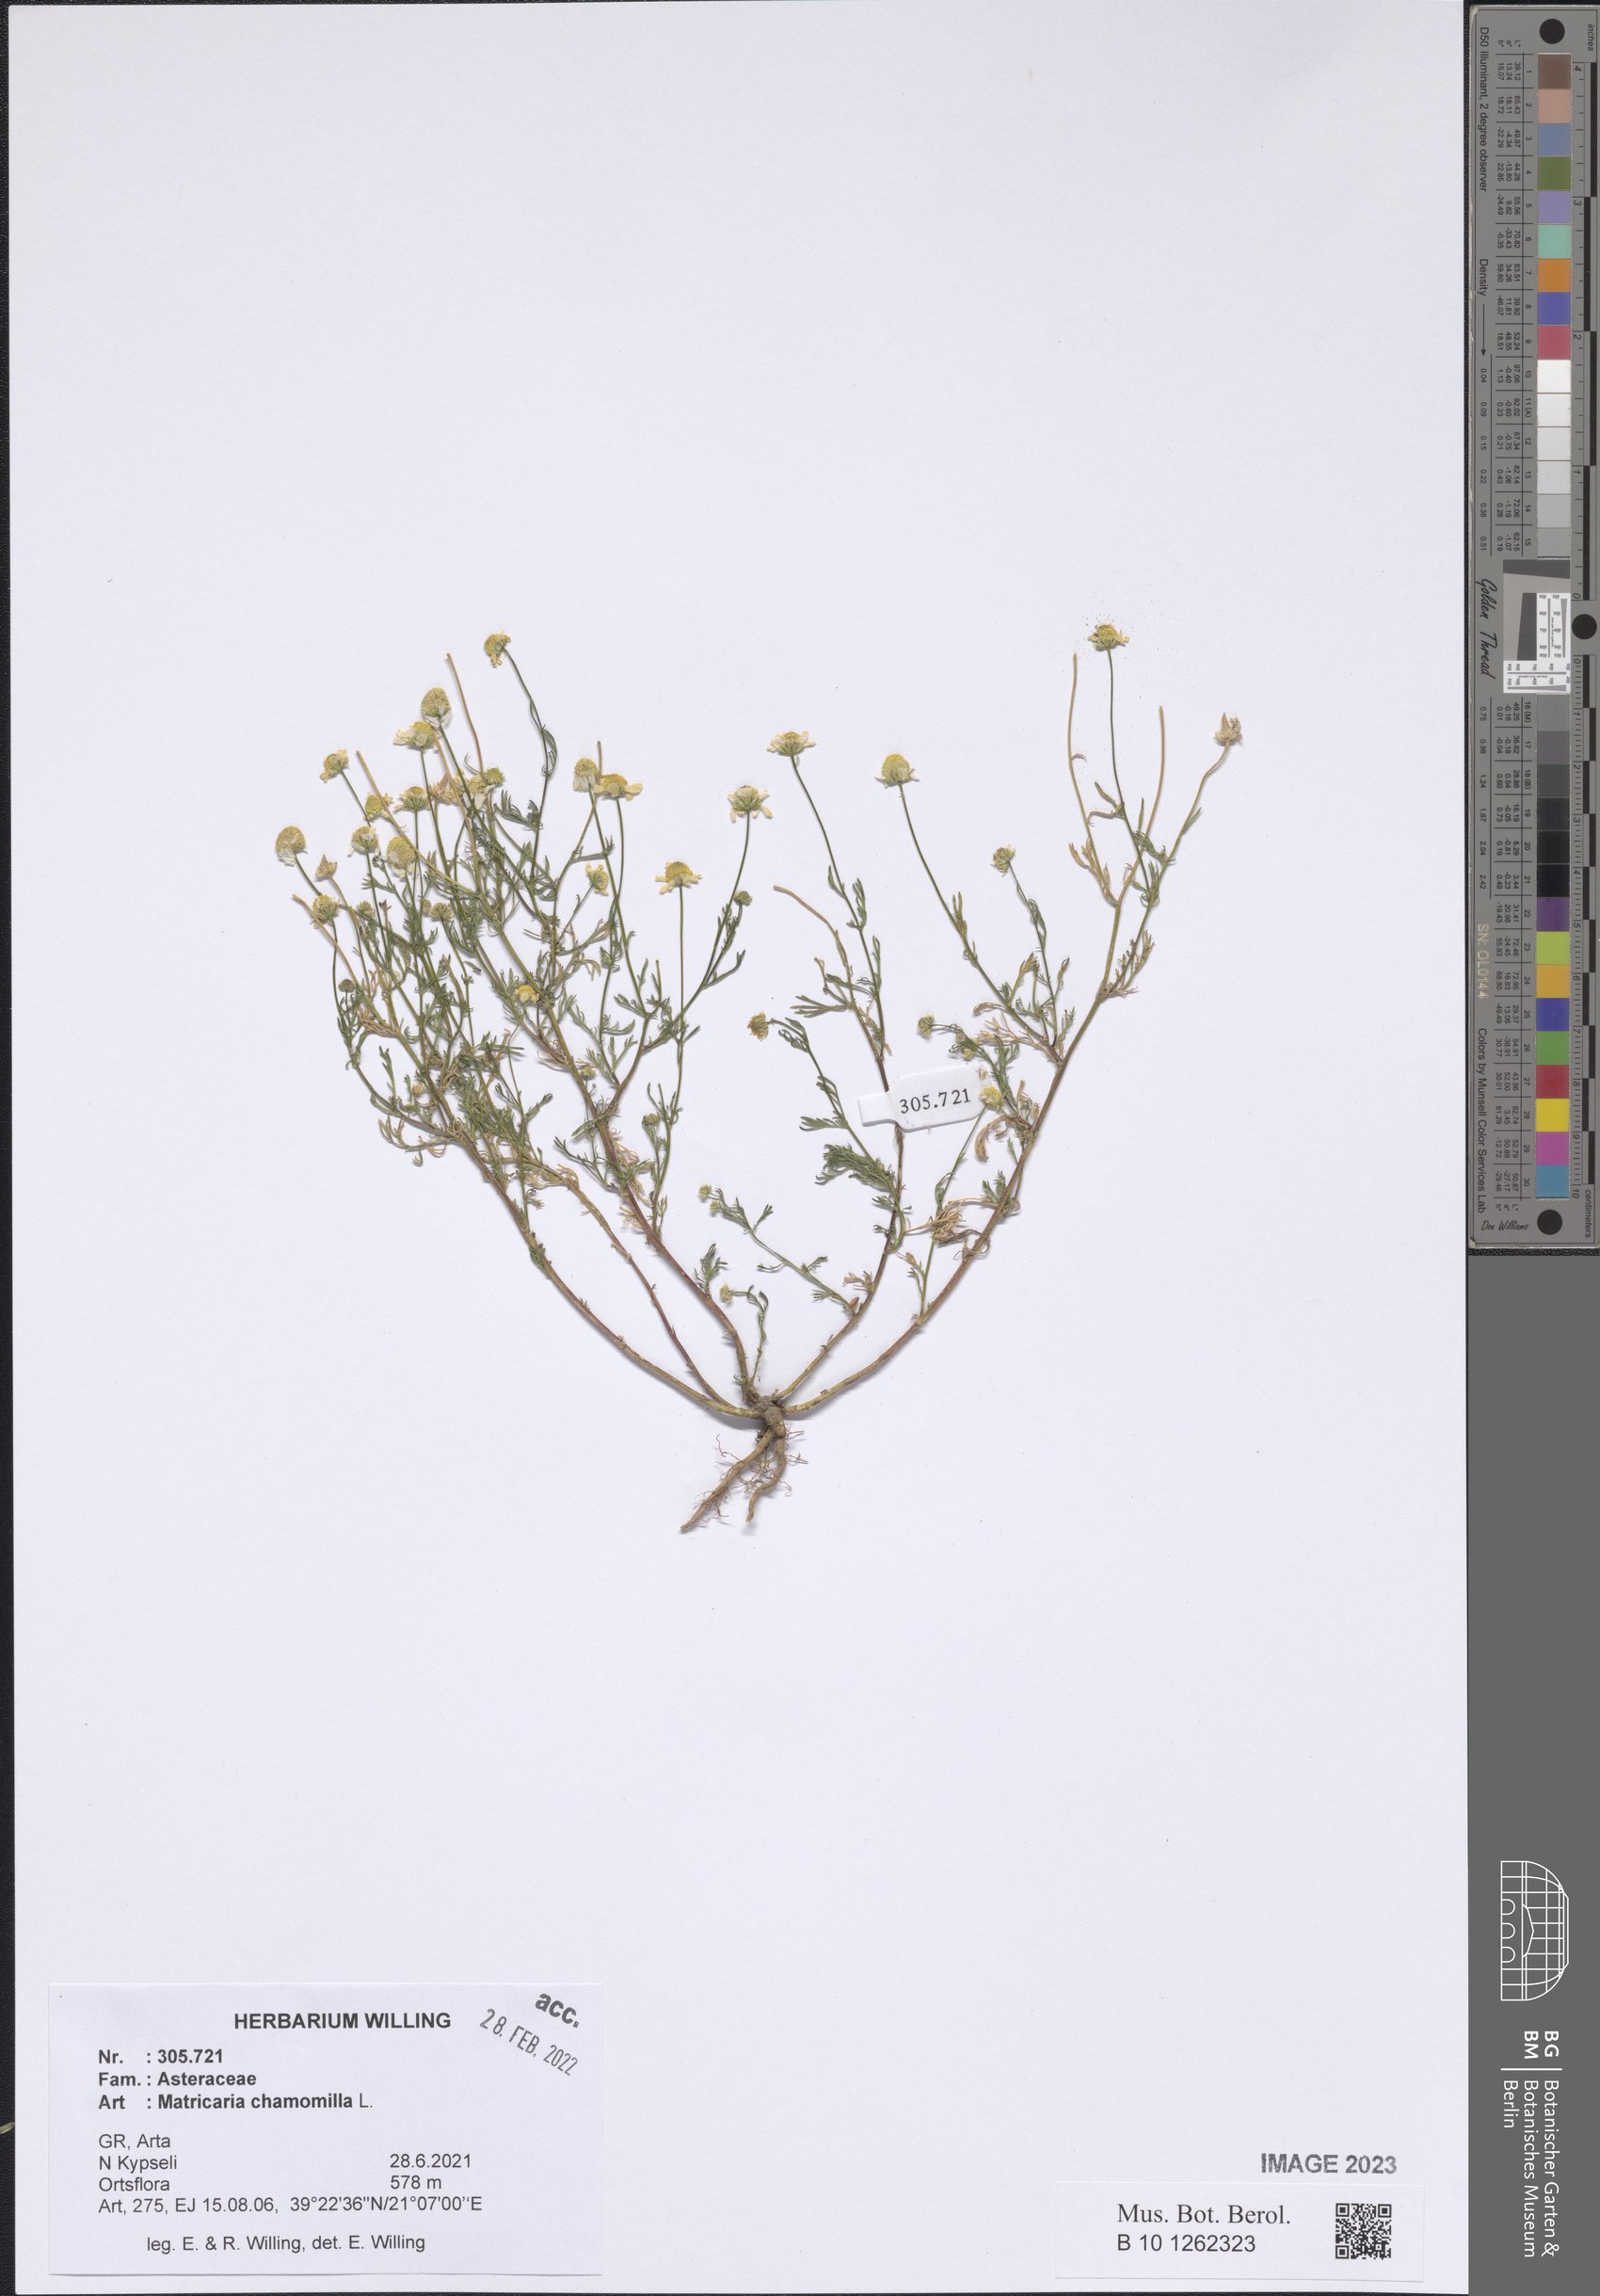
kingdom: Plantae
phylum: Tracheophyta
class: Magnoliopsida
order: Asterales
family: Asteraceae
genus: Matricaria
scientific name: Matricaria chamomilla
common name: Scented mayweed
